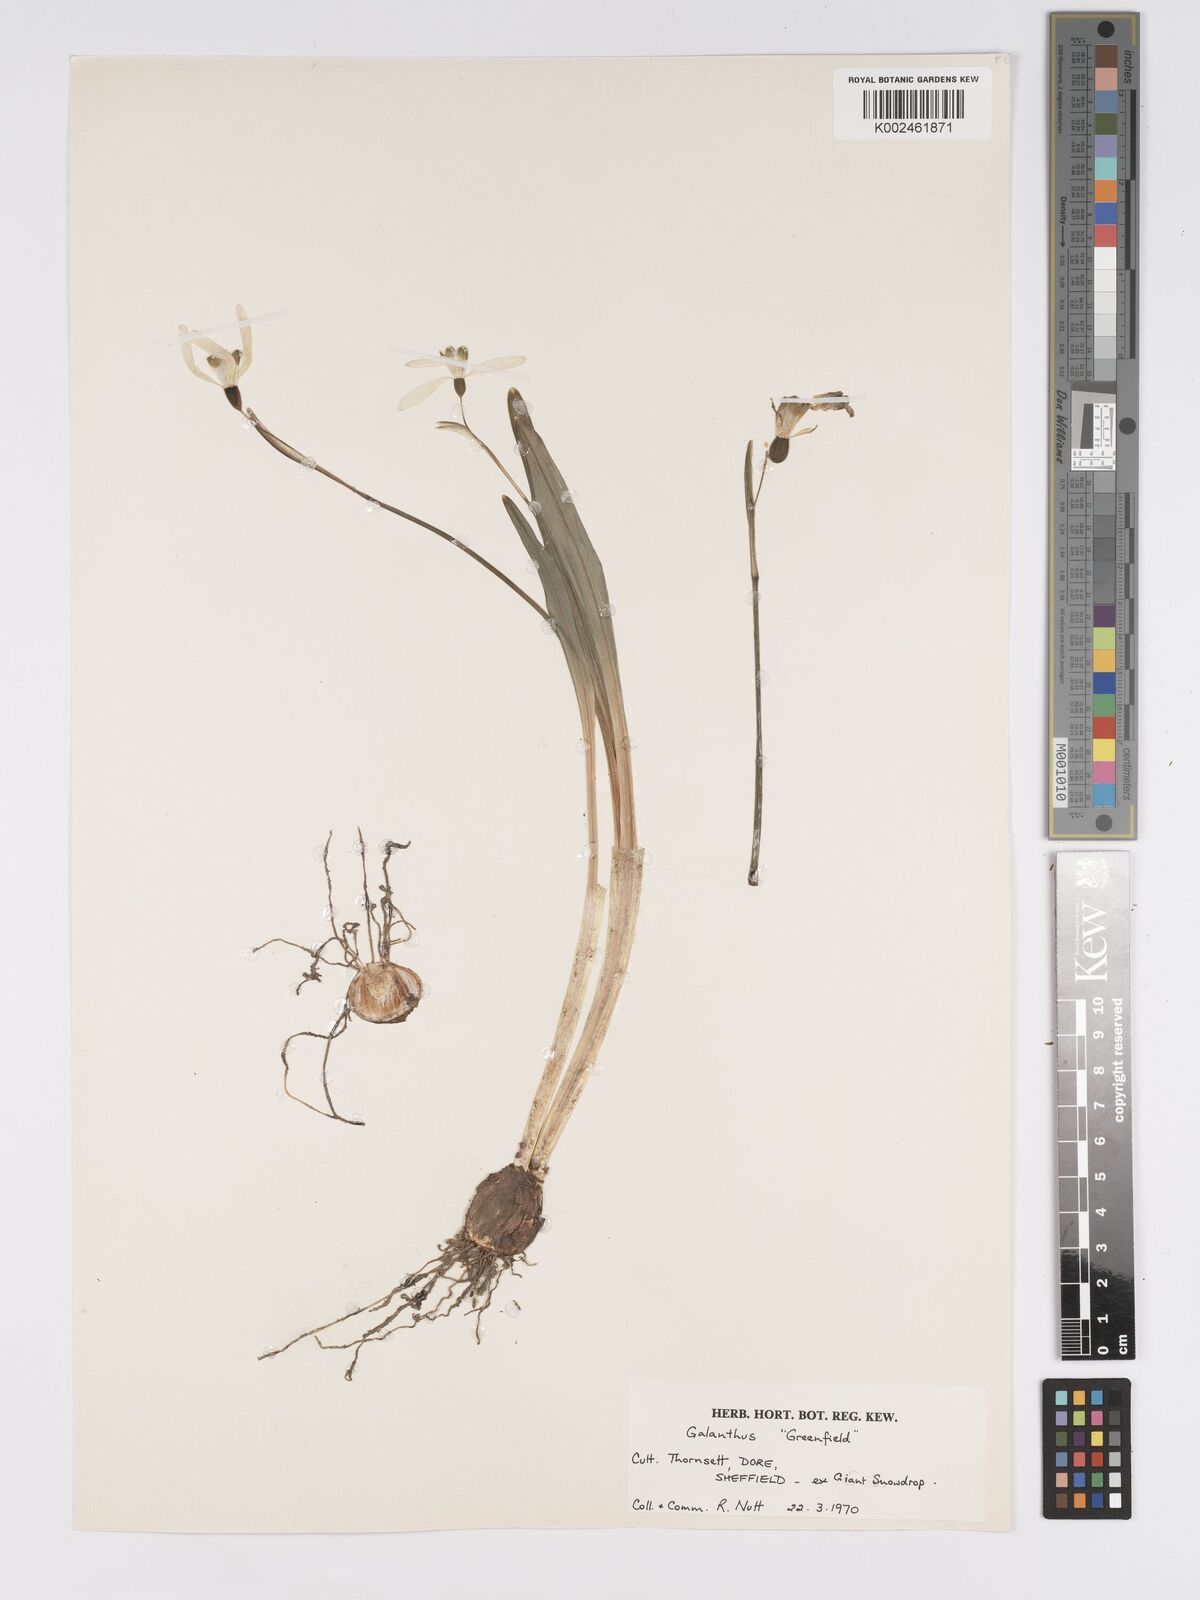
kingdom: Plantae
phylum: Tracheophyta
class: Liliopsida
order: Asparagales
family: Amaryllidaceae
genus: Galanthus
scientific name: Galanthus plicatus
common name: Pleated snowdrop
